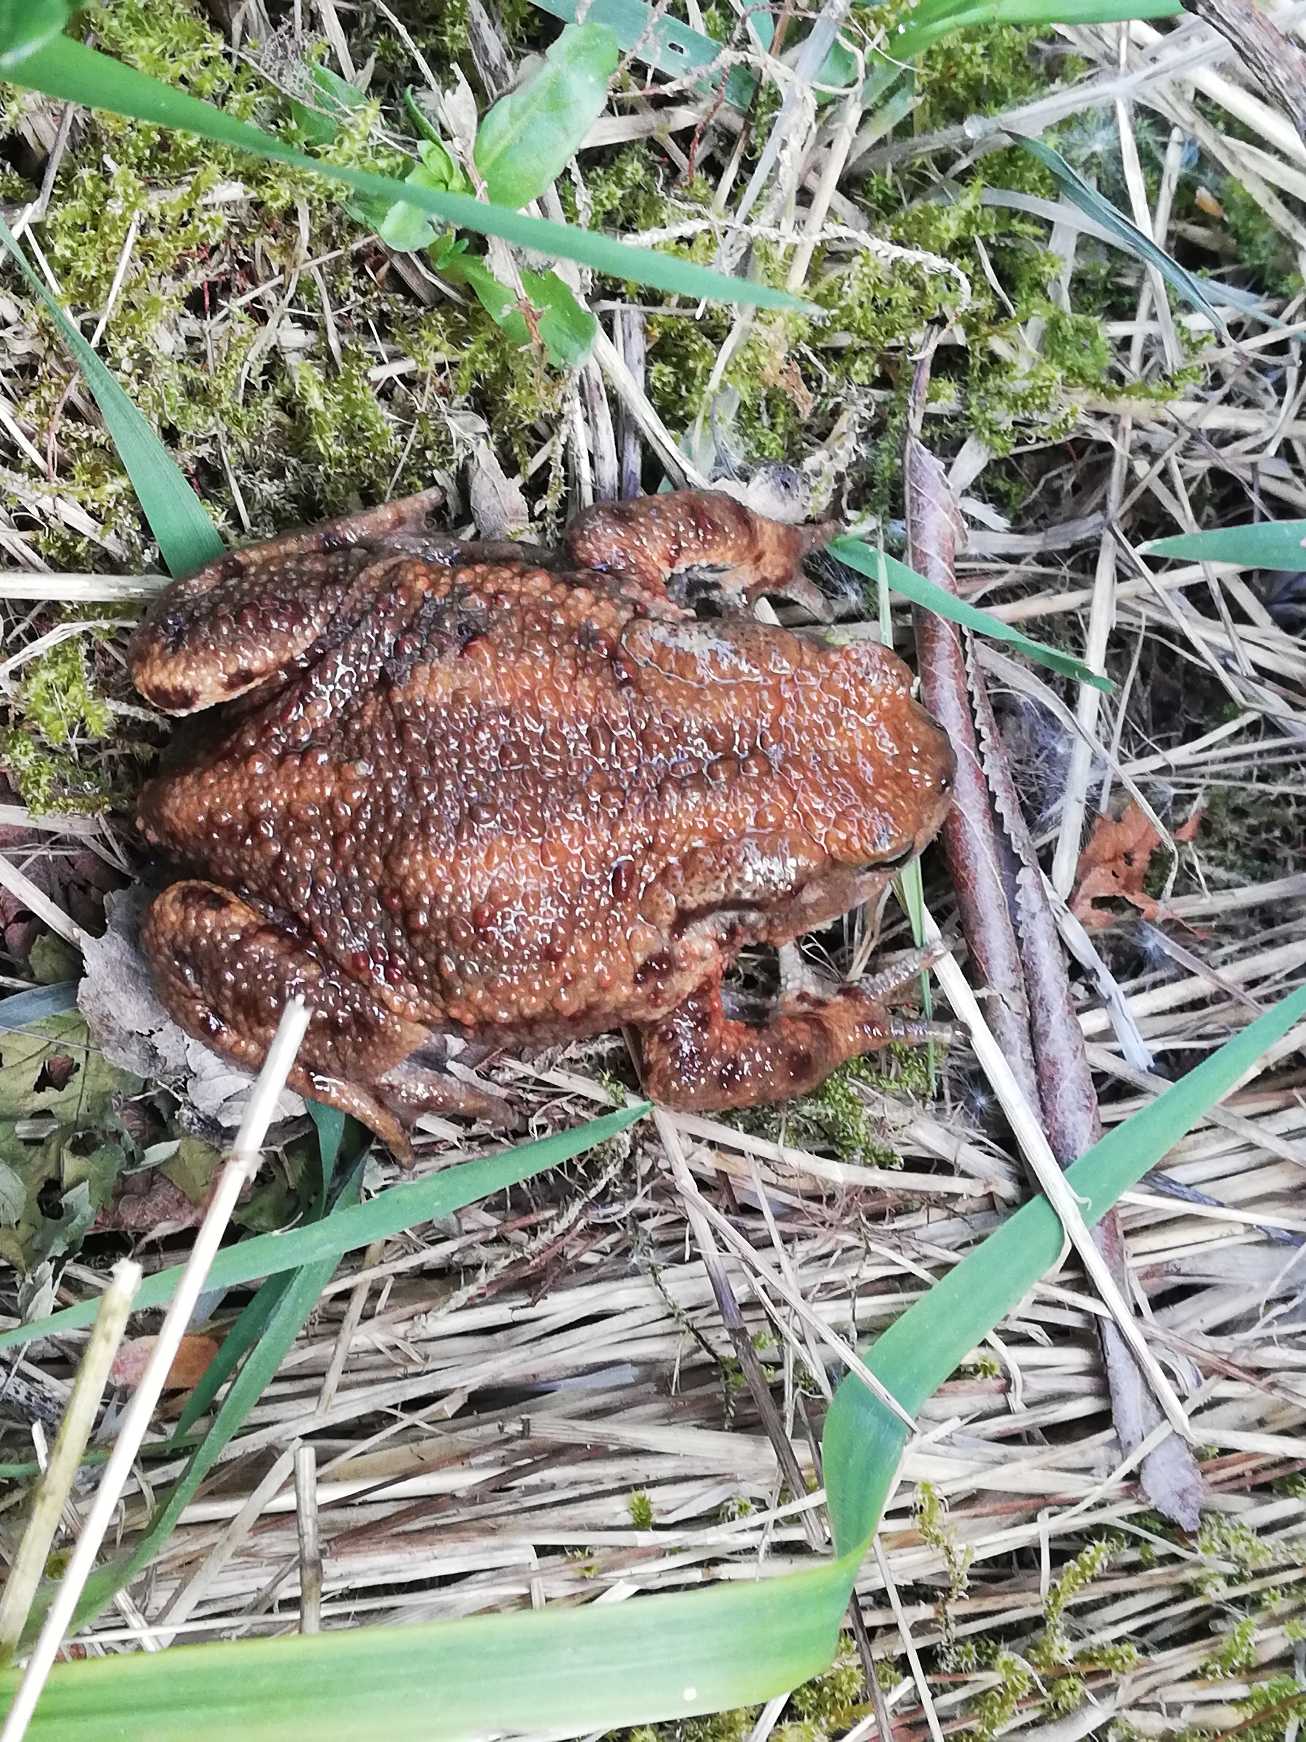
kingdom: Animalia
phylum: Chordata
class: Amphibia
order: Anura
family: Bufonidae
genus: Bufo
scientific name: Bufo bufo
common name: Skrubtudse
